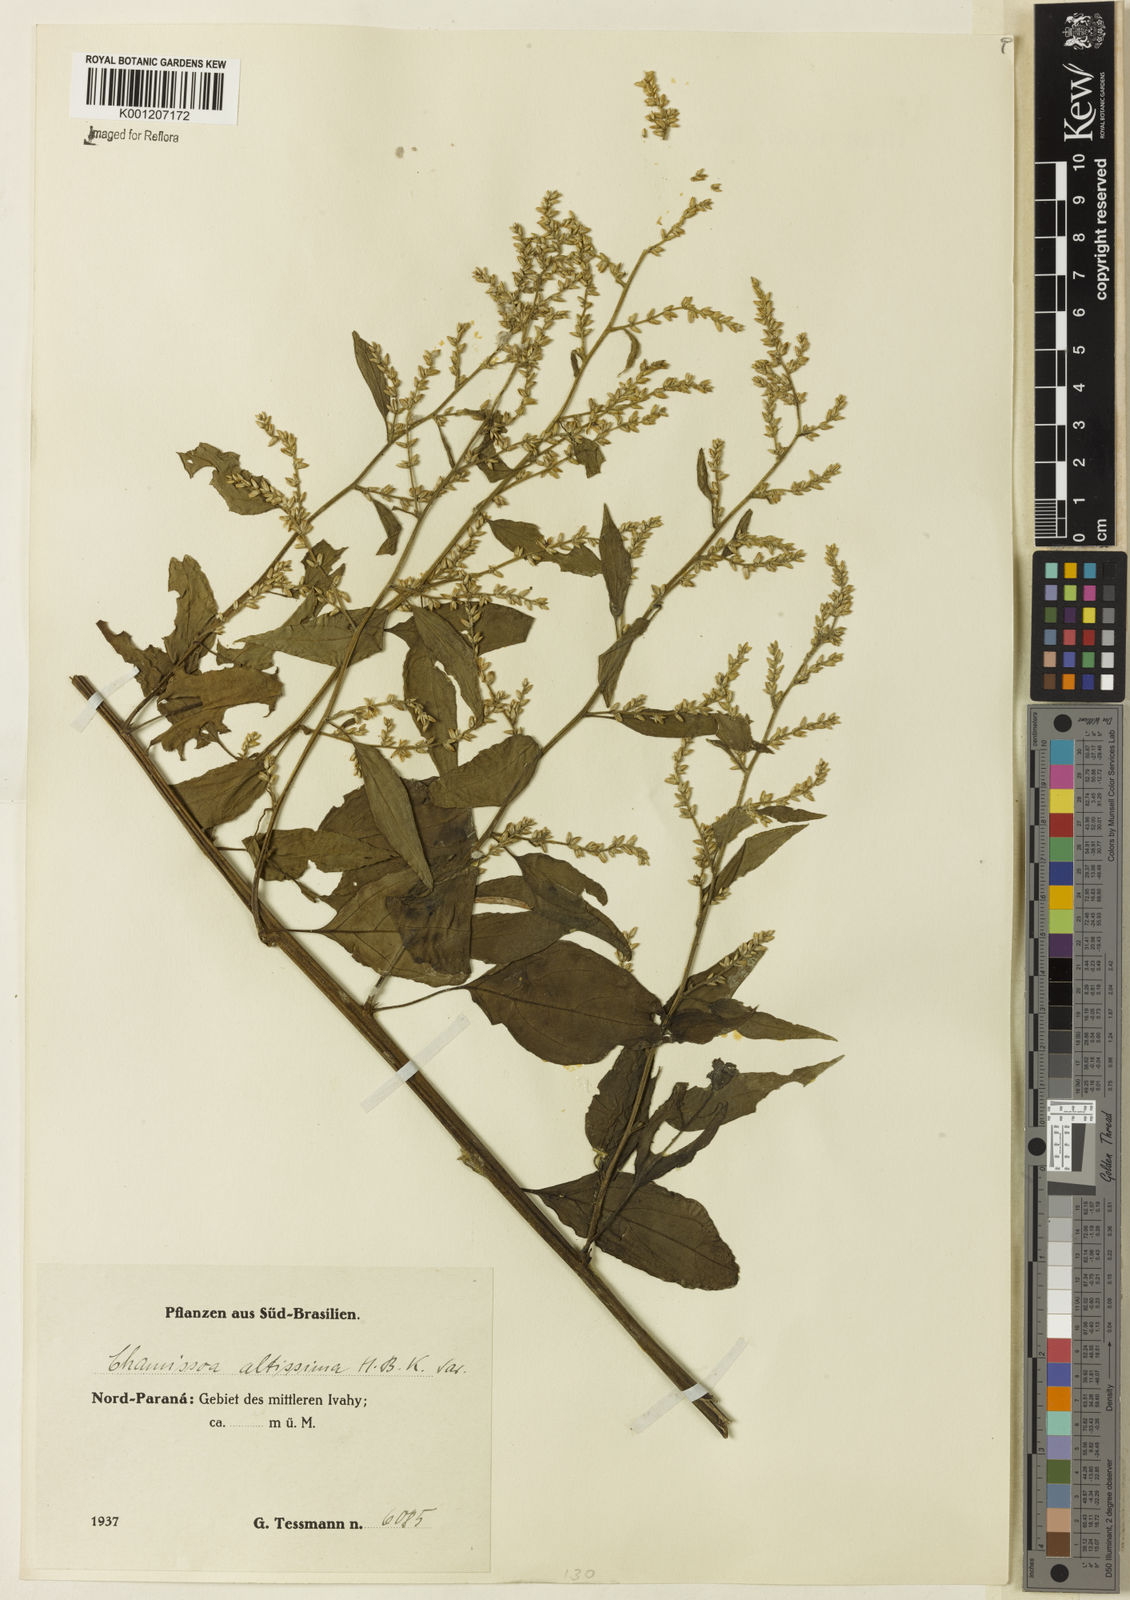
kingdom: Plantae
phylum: Tracheophyta
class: Magnoliopsida
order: Caryophyllales
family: Amaranthaceae
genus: Chamissoa
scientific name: Chamissoa altissima
